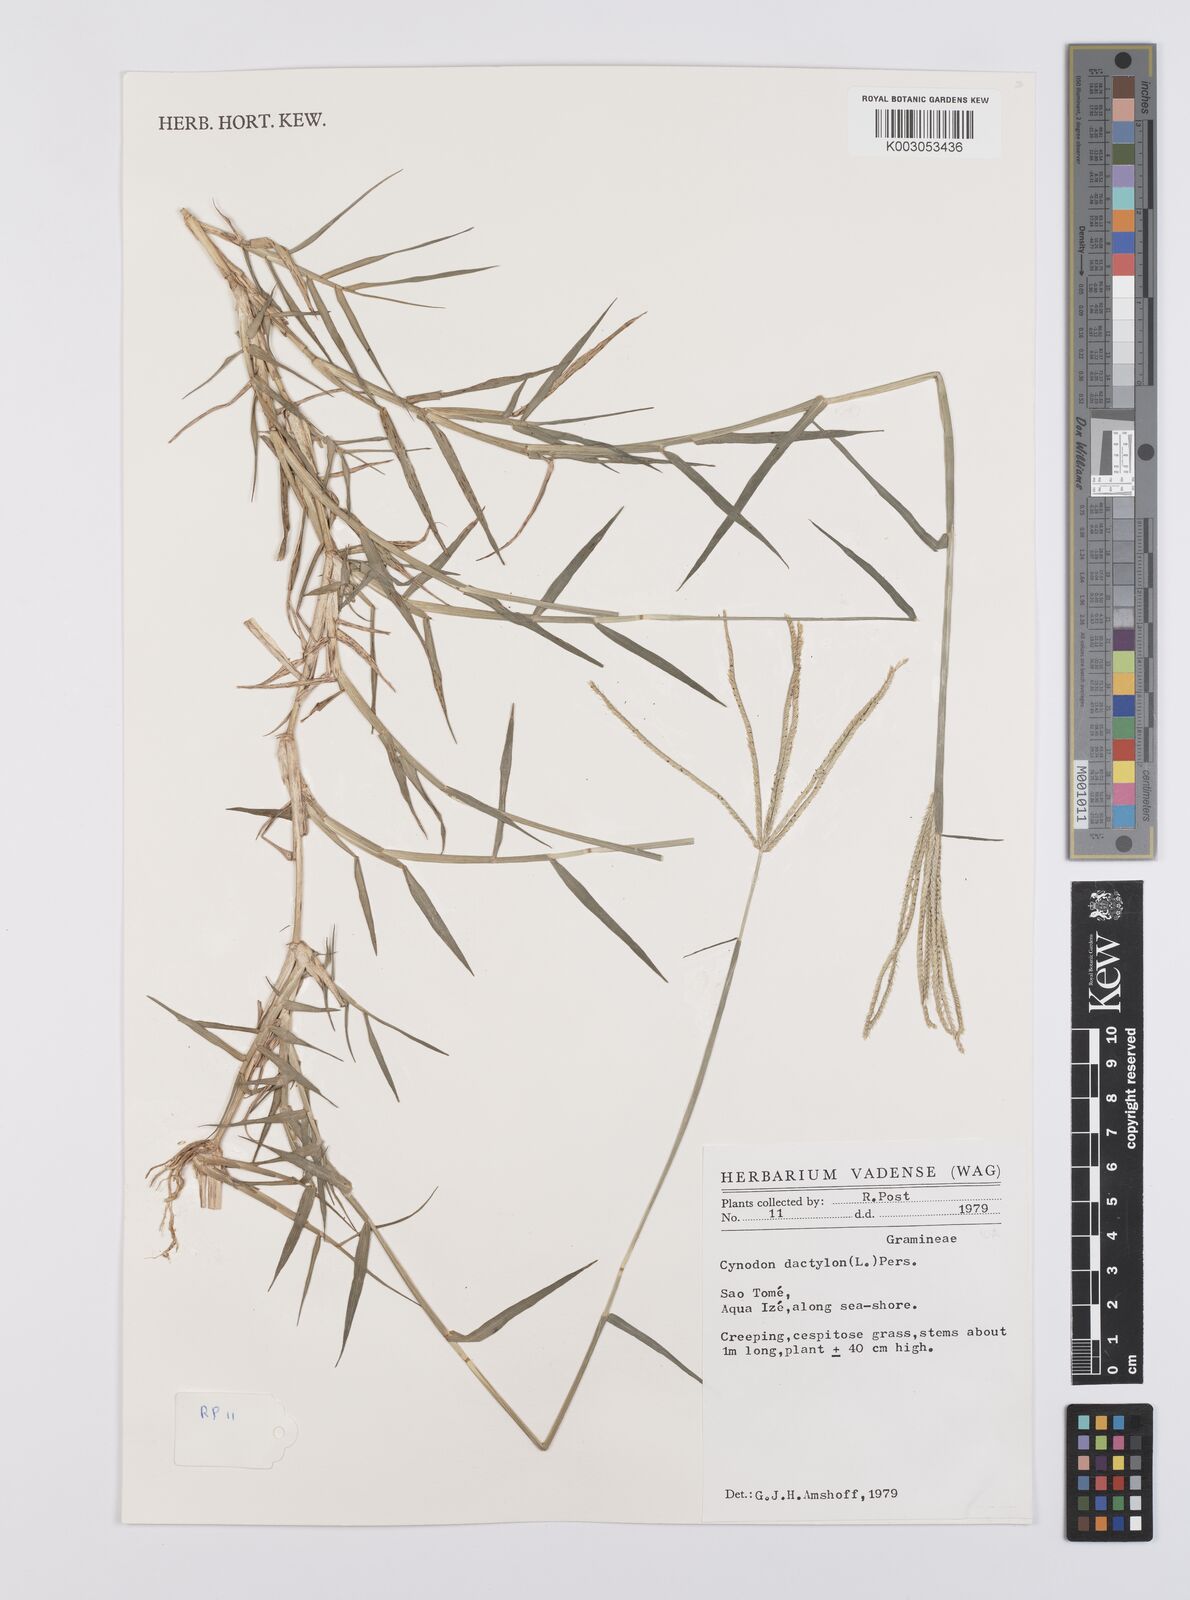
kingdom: Plantae
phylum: Tracheophyta
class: Liliopsida
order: Poales
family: Poaceae
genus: Cynodon
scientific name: Cynodon dactylon
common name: Bermuda grass
